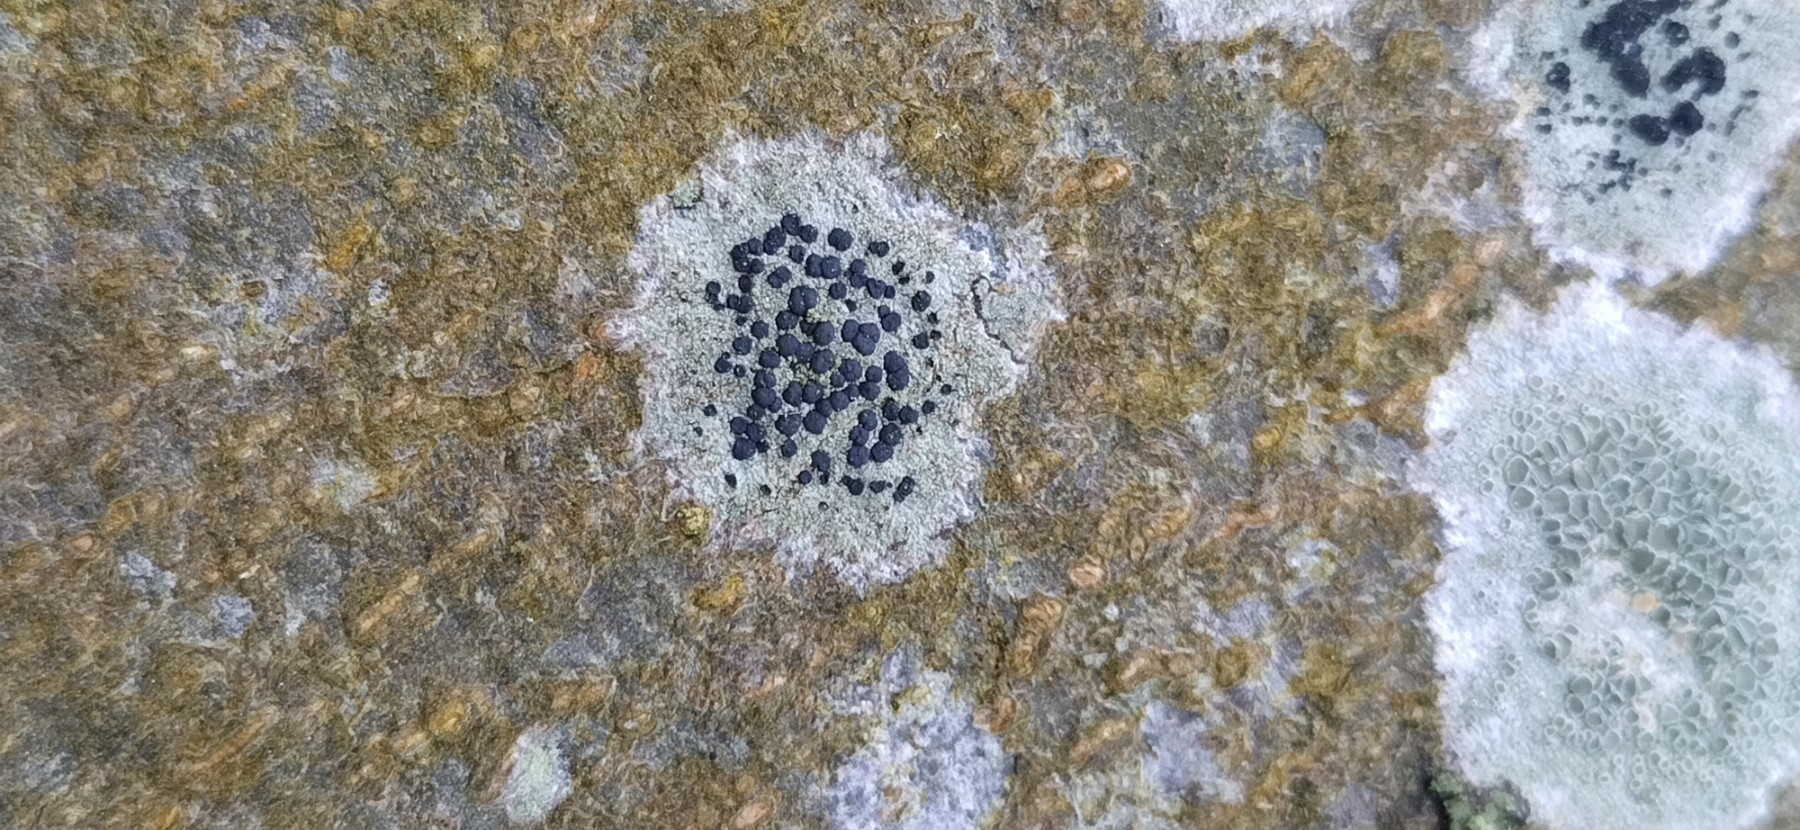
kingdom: Fungi
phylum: Ascomycota
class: Lecanoromycetes
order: Lecanorales
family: Lecanoraceae
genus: Lecidella
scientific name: Lecidella elaeochroma
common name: grågrøn skivelav
